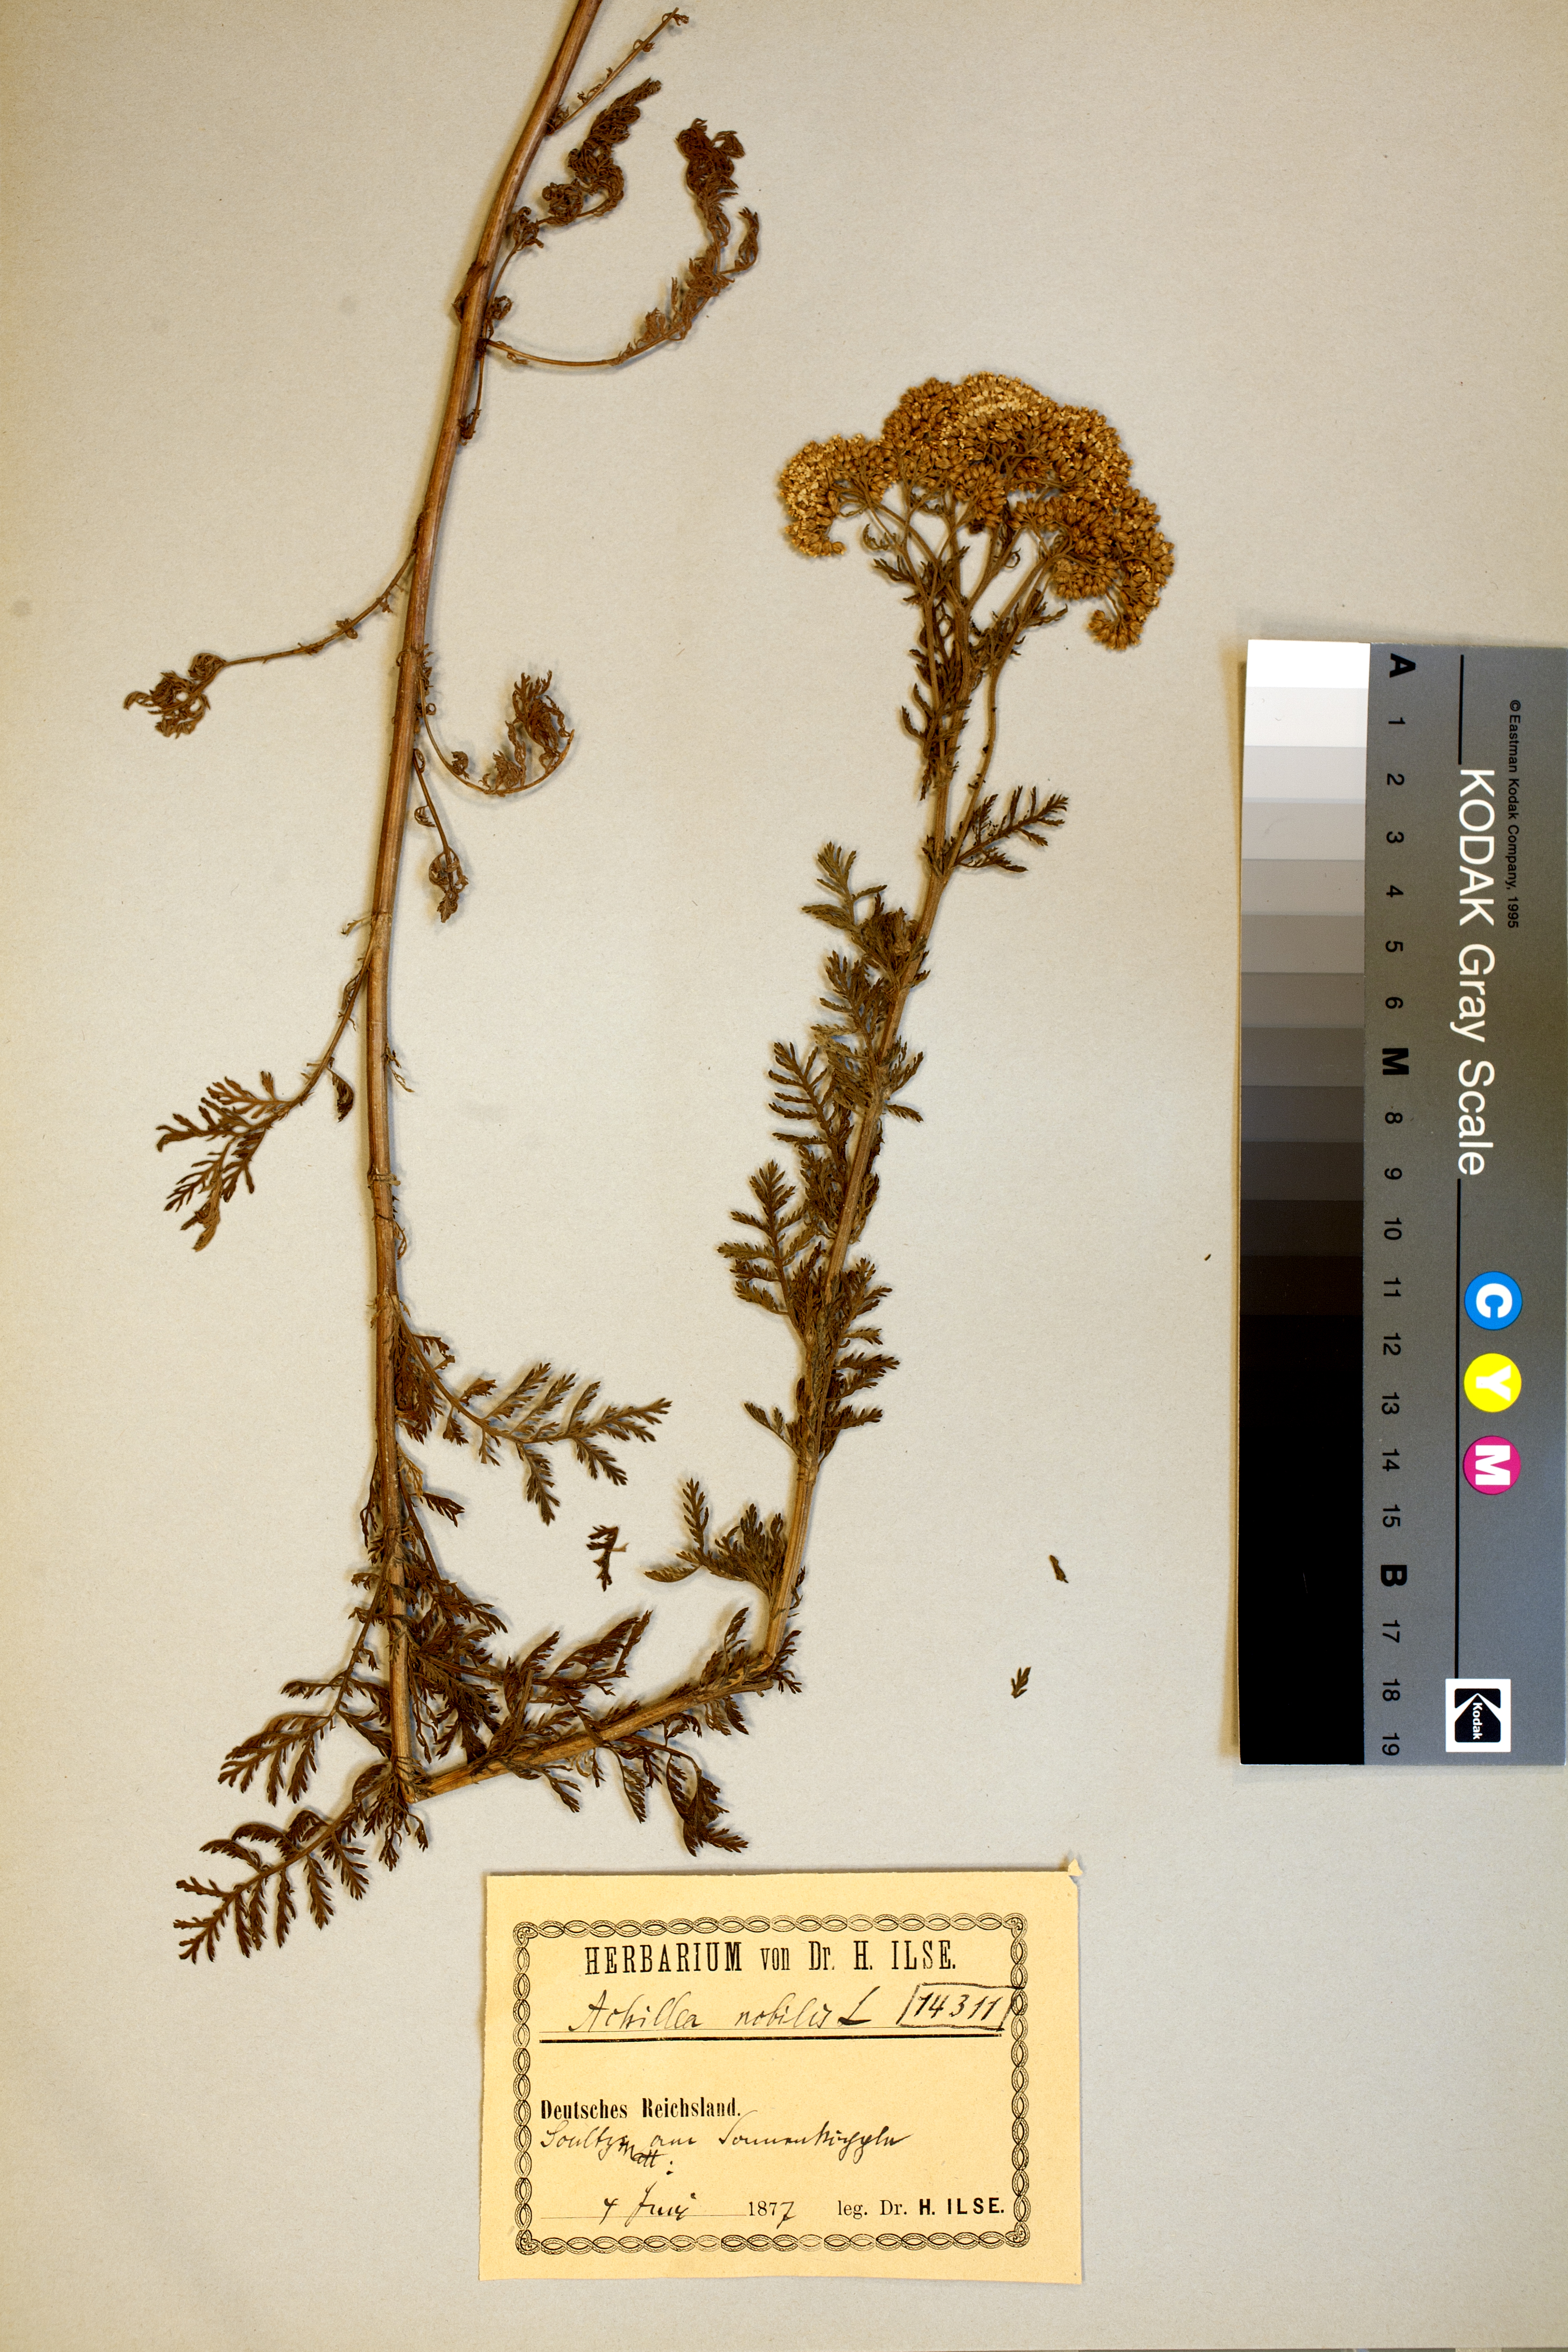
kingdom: Plantae
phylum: Tracheophyta
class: Magnoliopsida
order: Asterales
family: Asteraceae
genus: Achillea
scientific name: Achillea nobilis
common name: Noble yarrow
